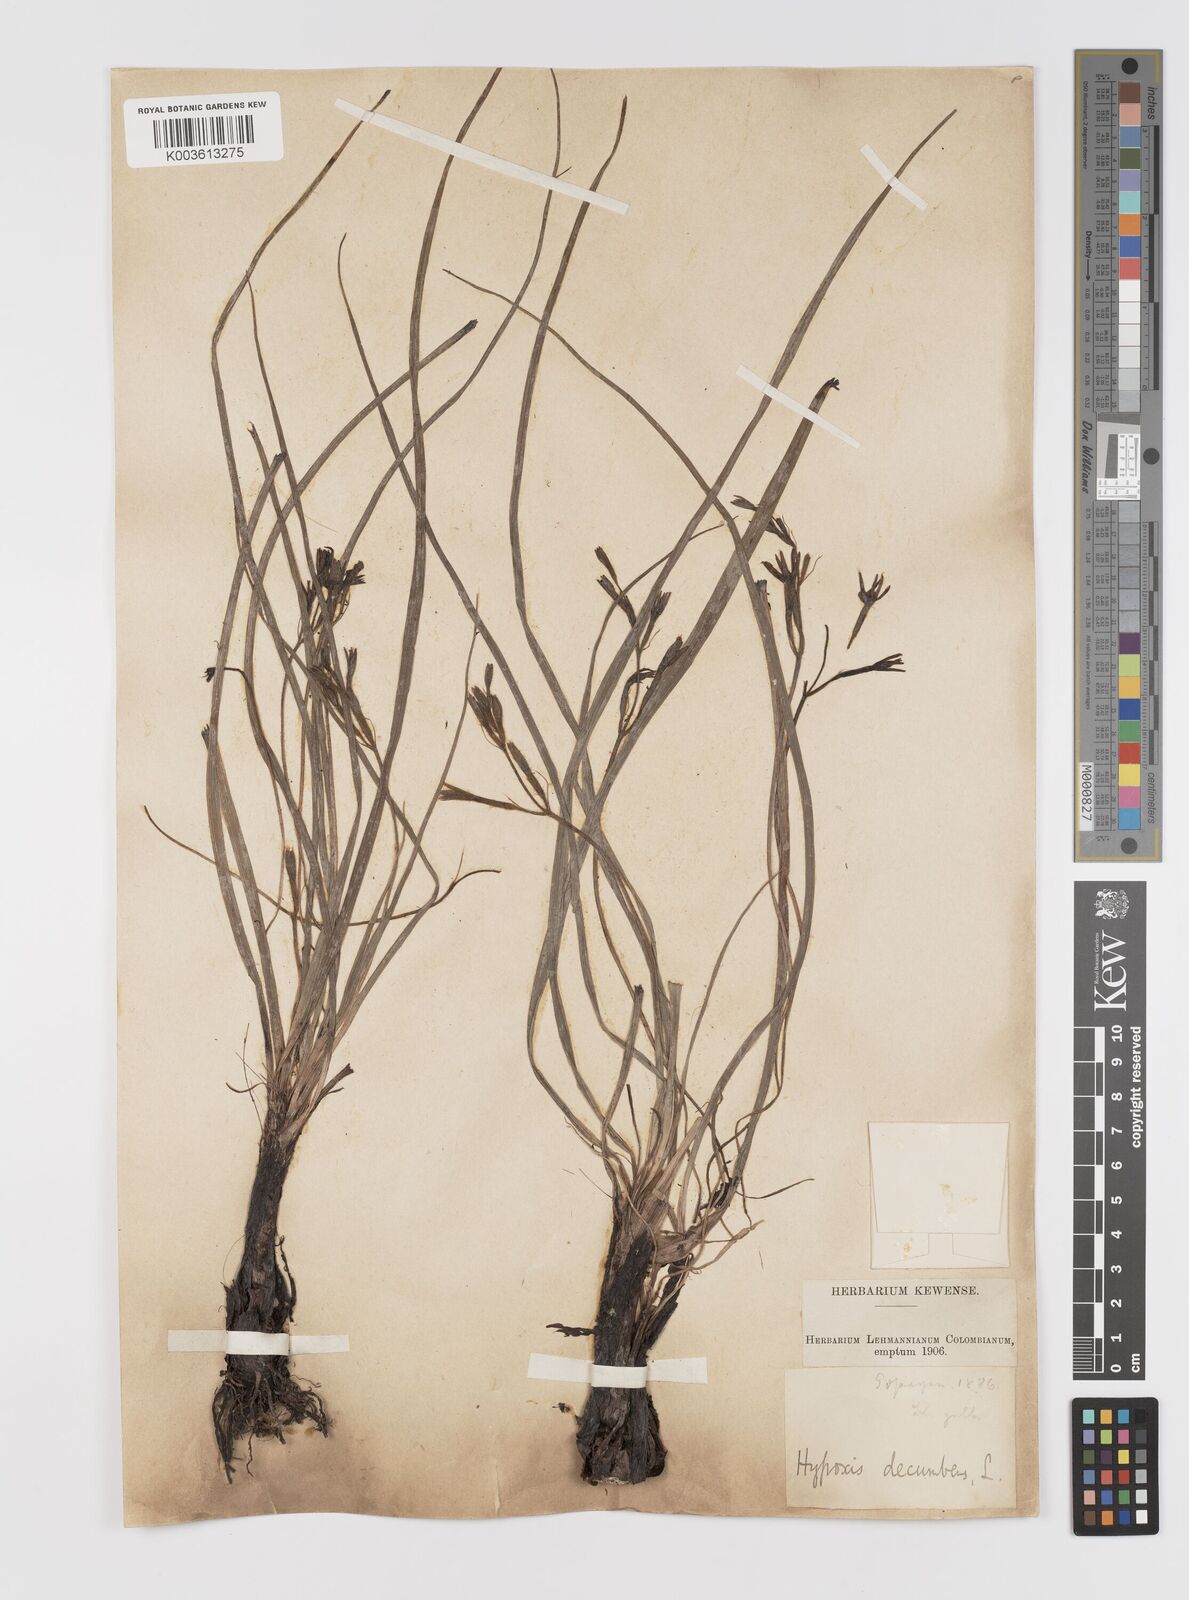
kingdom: Plantae
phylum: Tracheophyta
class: Liliopsida
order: Asparagales
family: Hypoxidaceae
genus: Hypoxis
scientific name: Hypoxis decumbens
